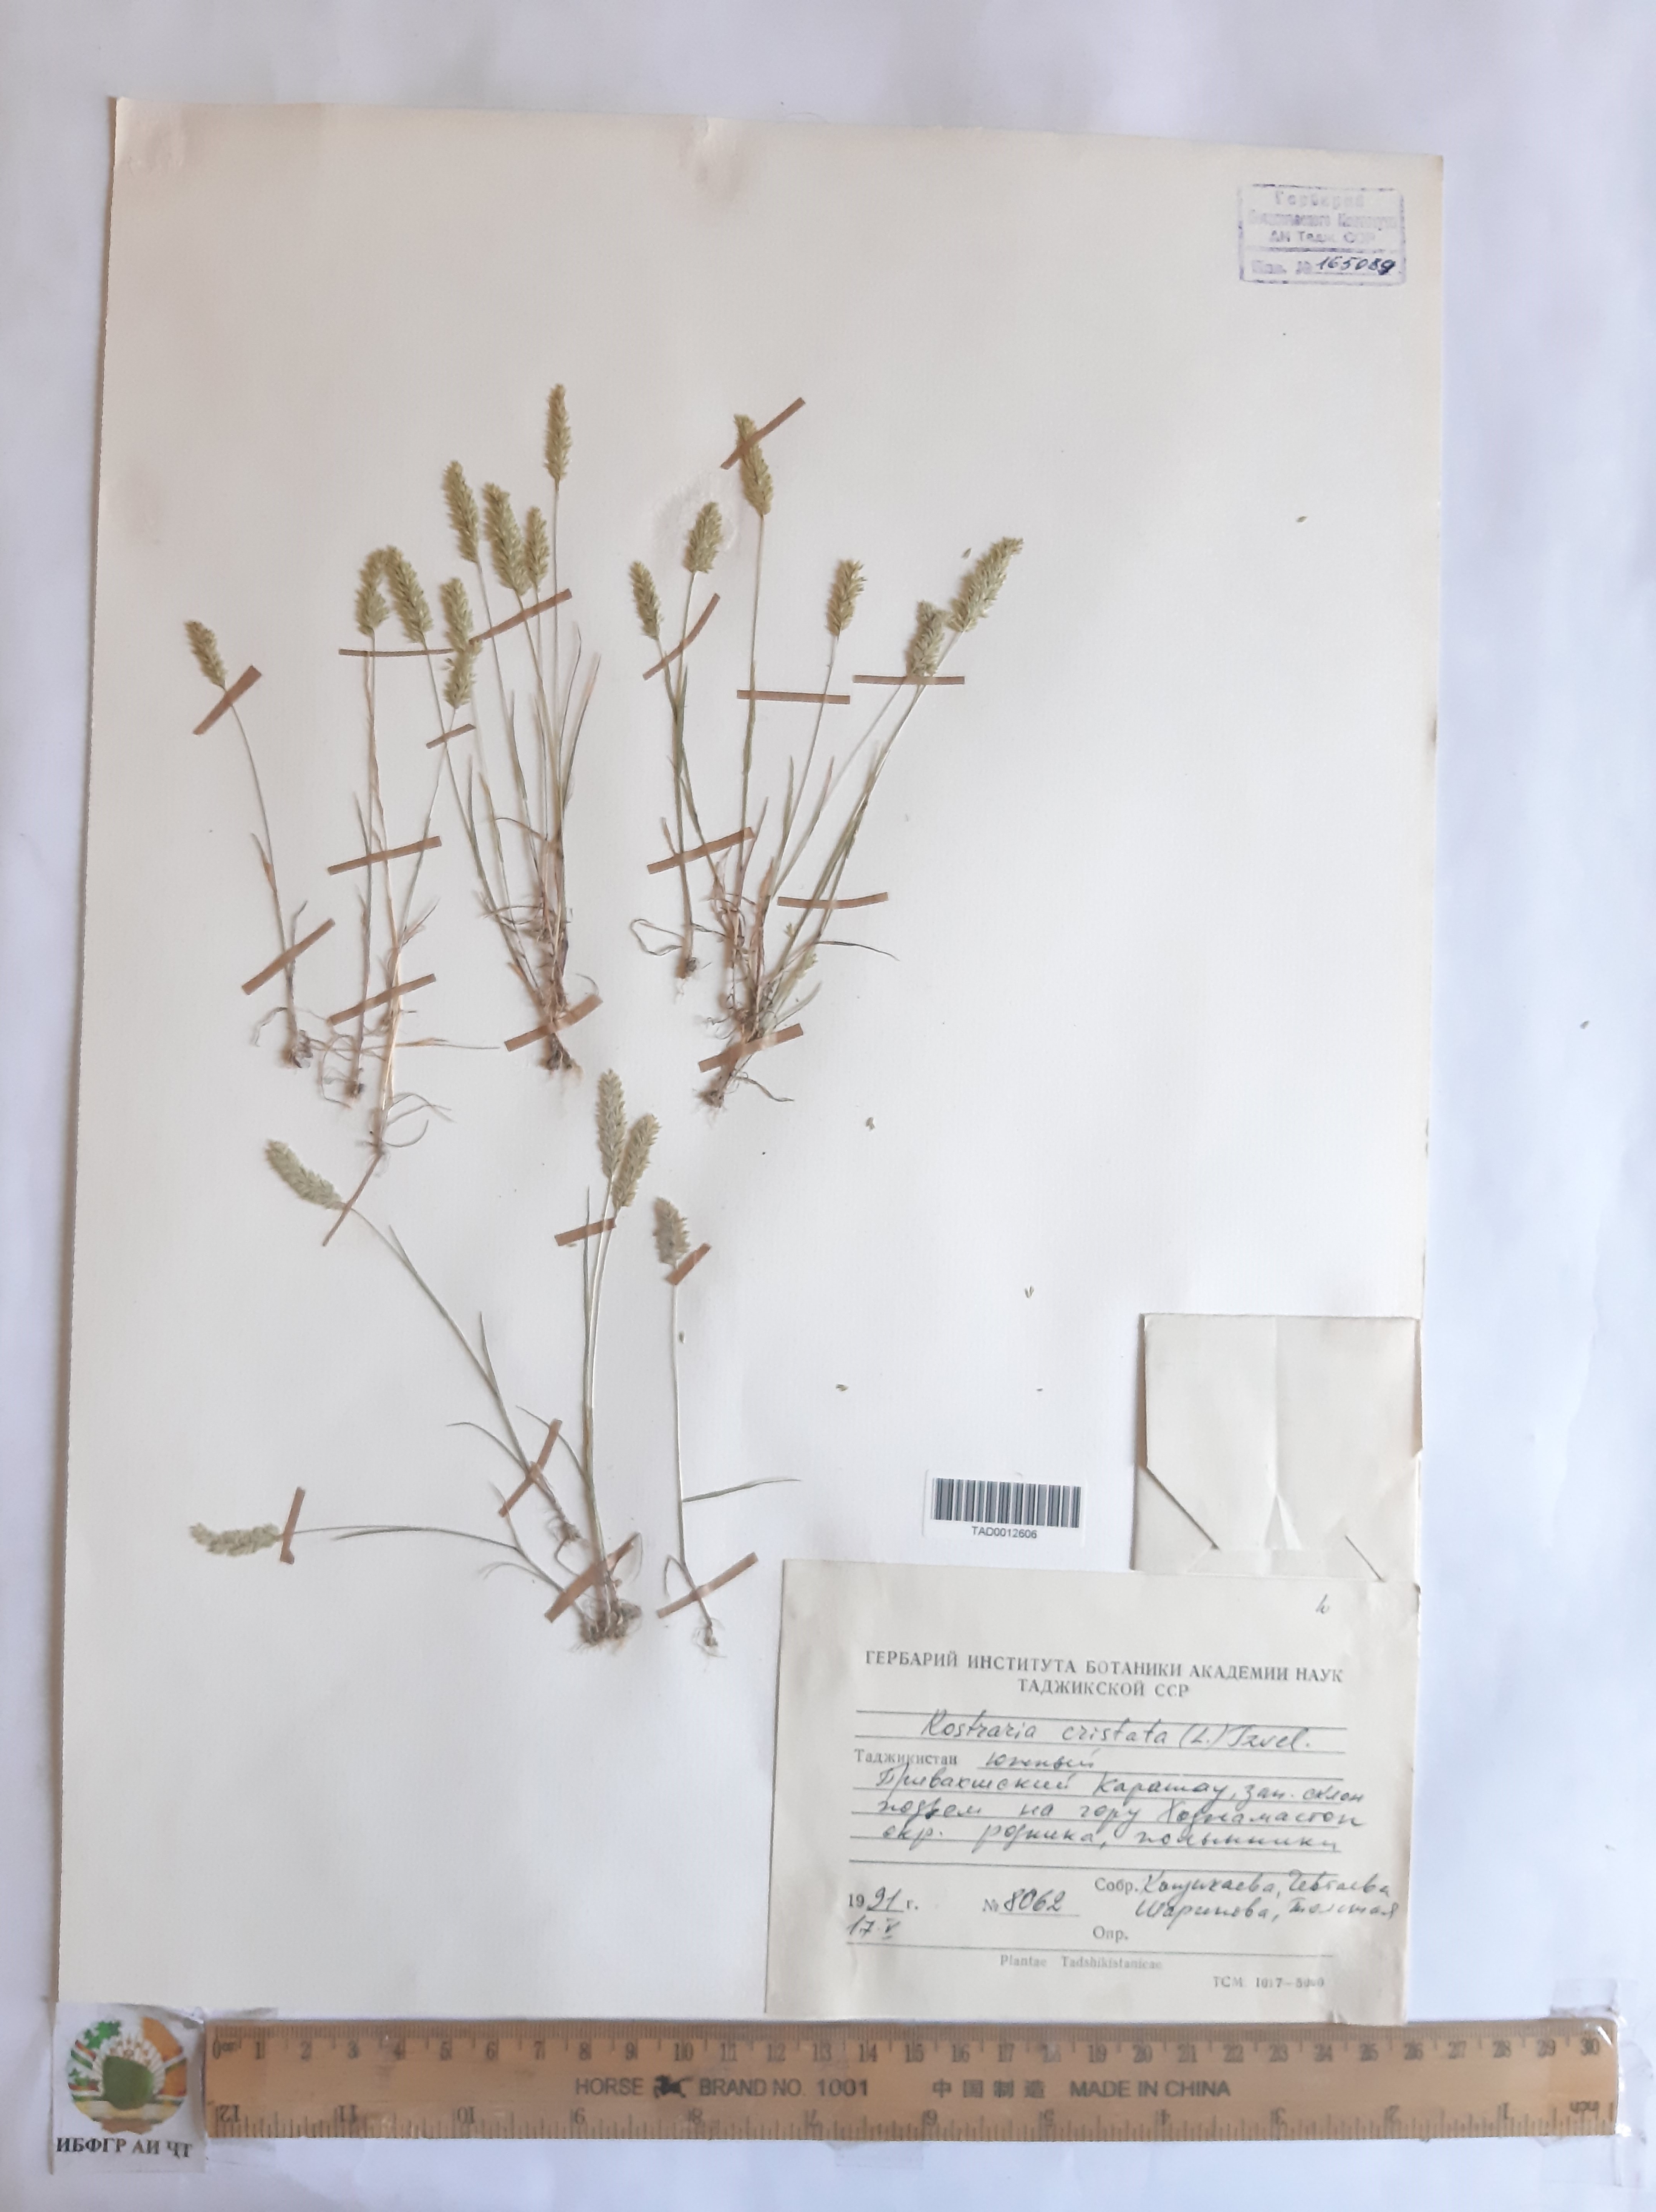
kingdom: Plantae
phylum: Tracheophyta
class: Liliopsida
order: Poales
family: Poaceae
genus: Rostraria
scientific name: Rostraria cristata
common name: Mediterranean hair-grass
